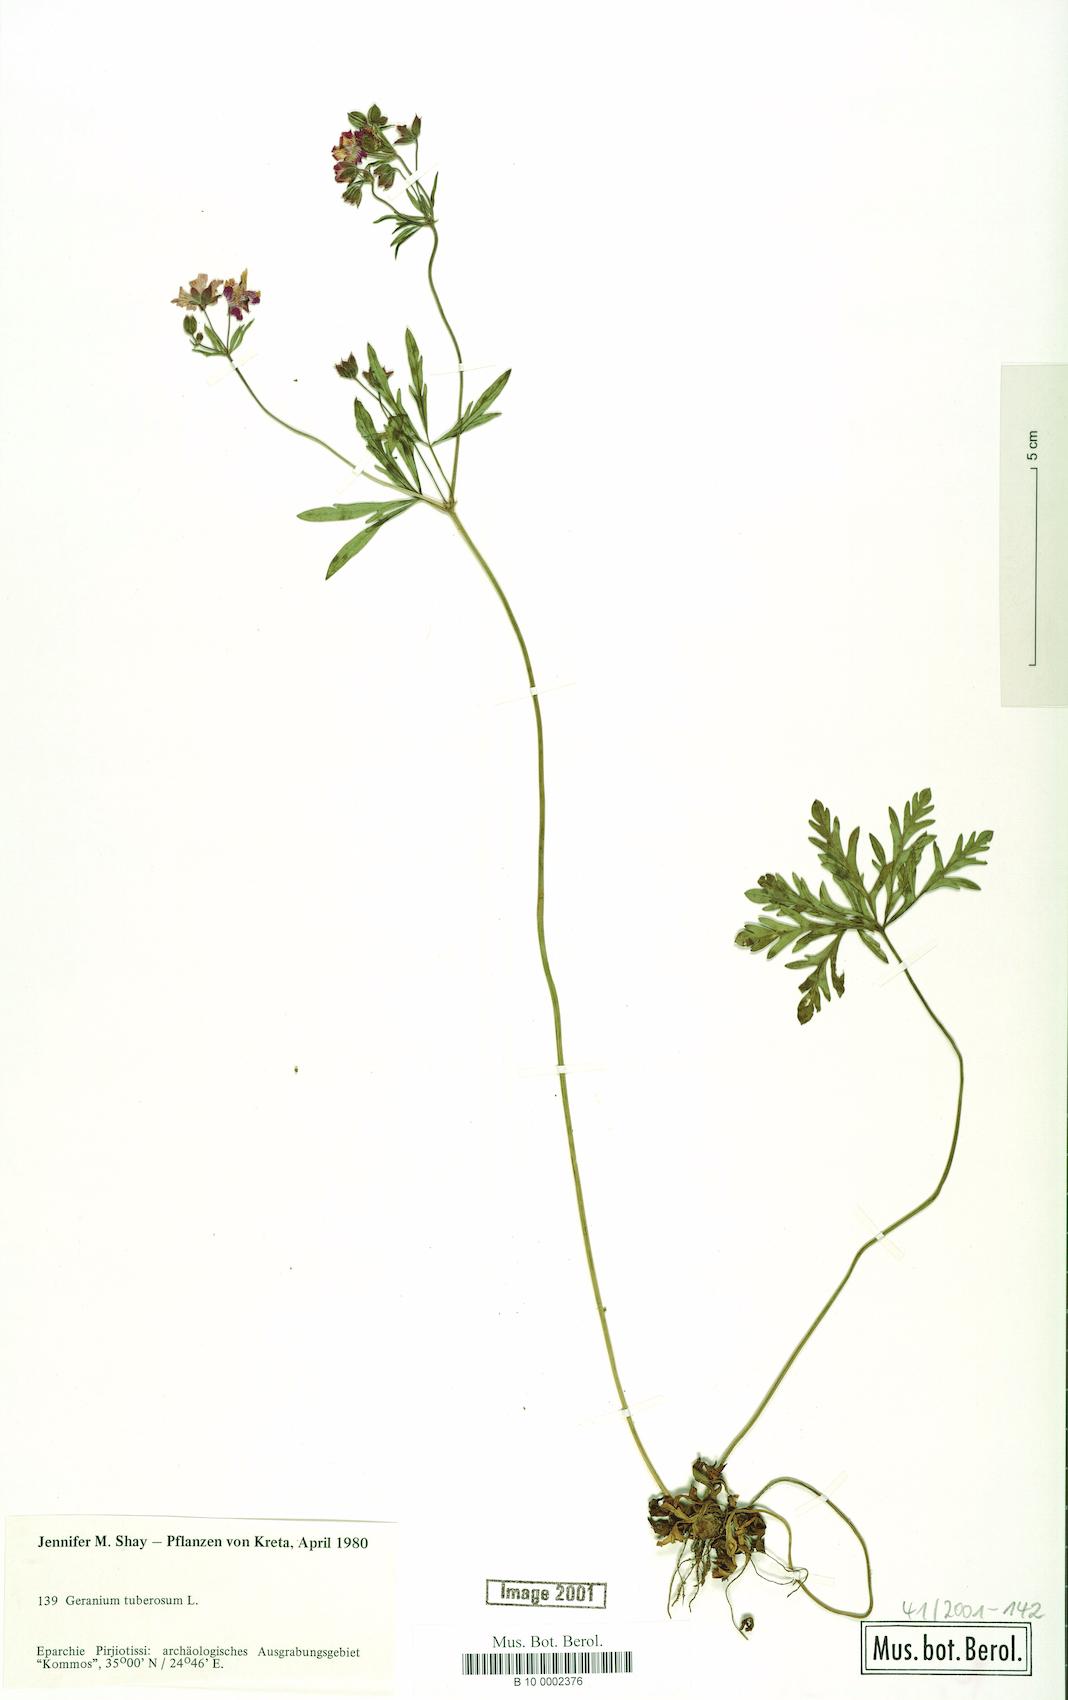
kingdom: Plantae
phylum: Tracheophyta
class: Magnoliopsida
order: Geraniales
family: Geraniaceae
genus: Geranium
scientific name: Geranium tuberosum
